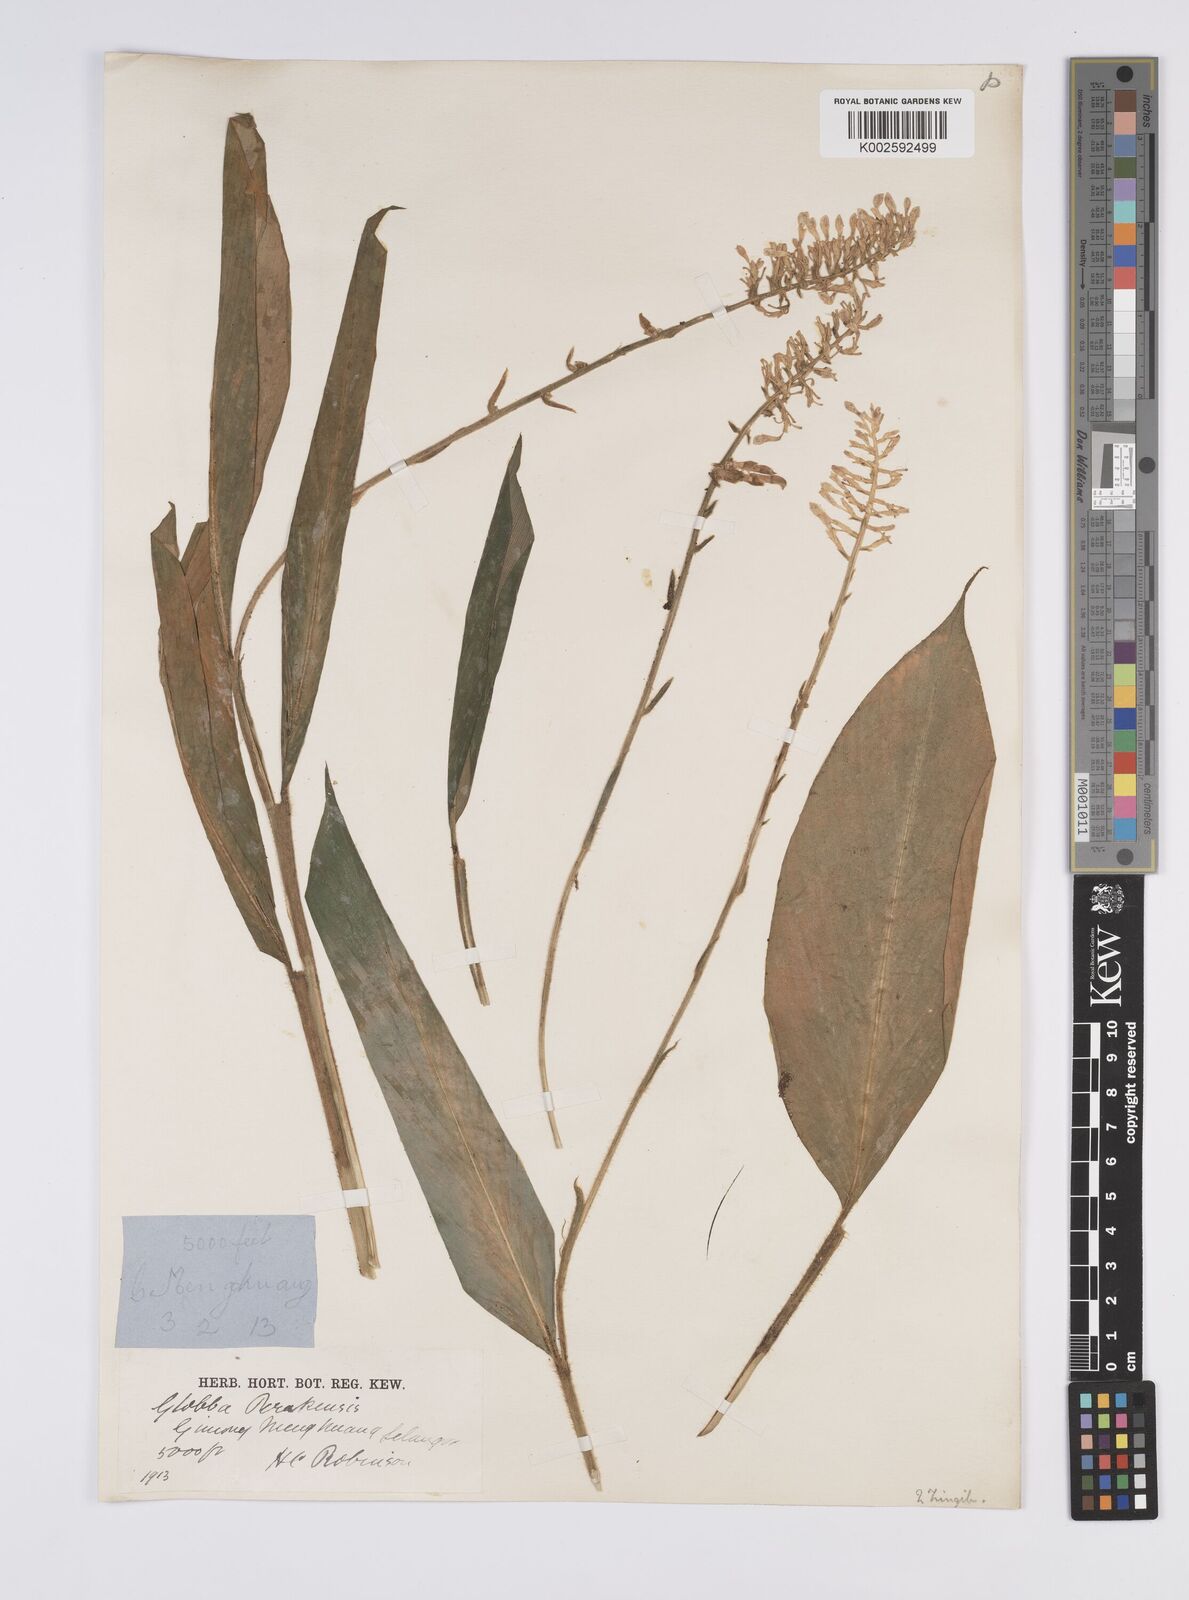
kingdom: Plantae
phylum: Tracheophyta
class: Liliopsida
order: Zingiberales
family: Zingiberaceae
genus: Globba
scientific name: Globba aurantiaca
